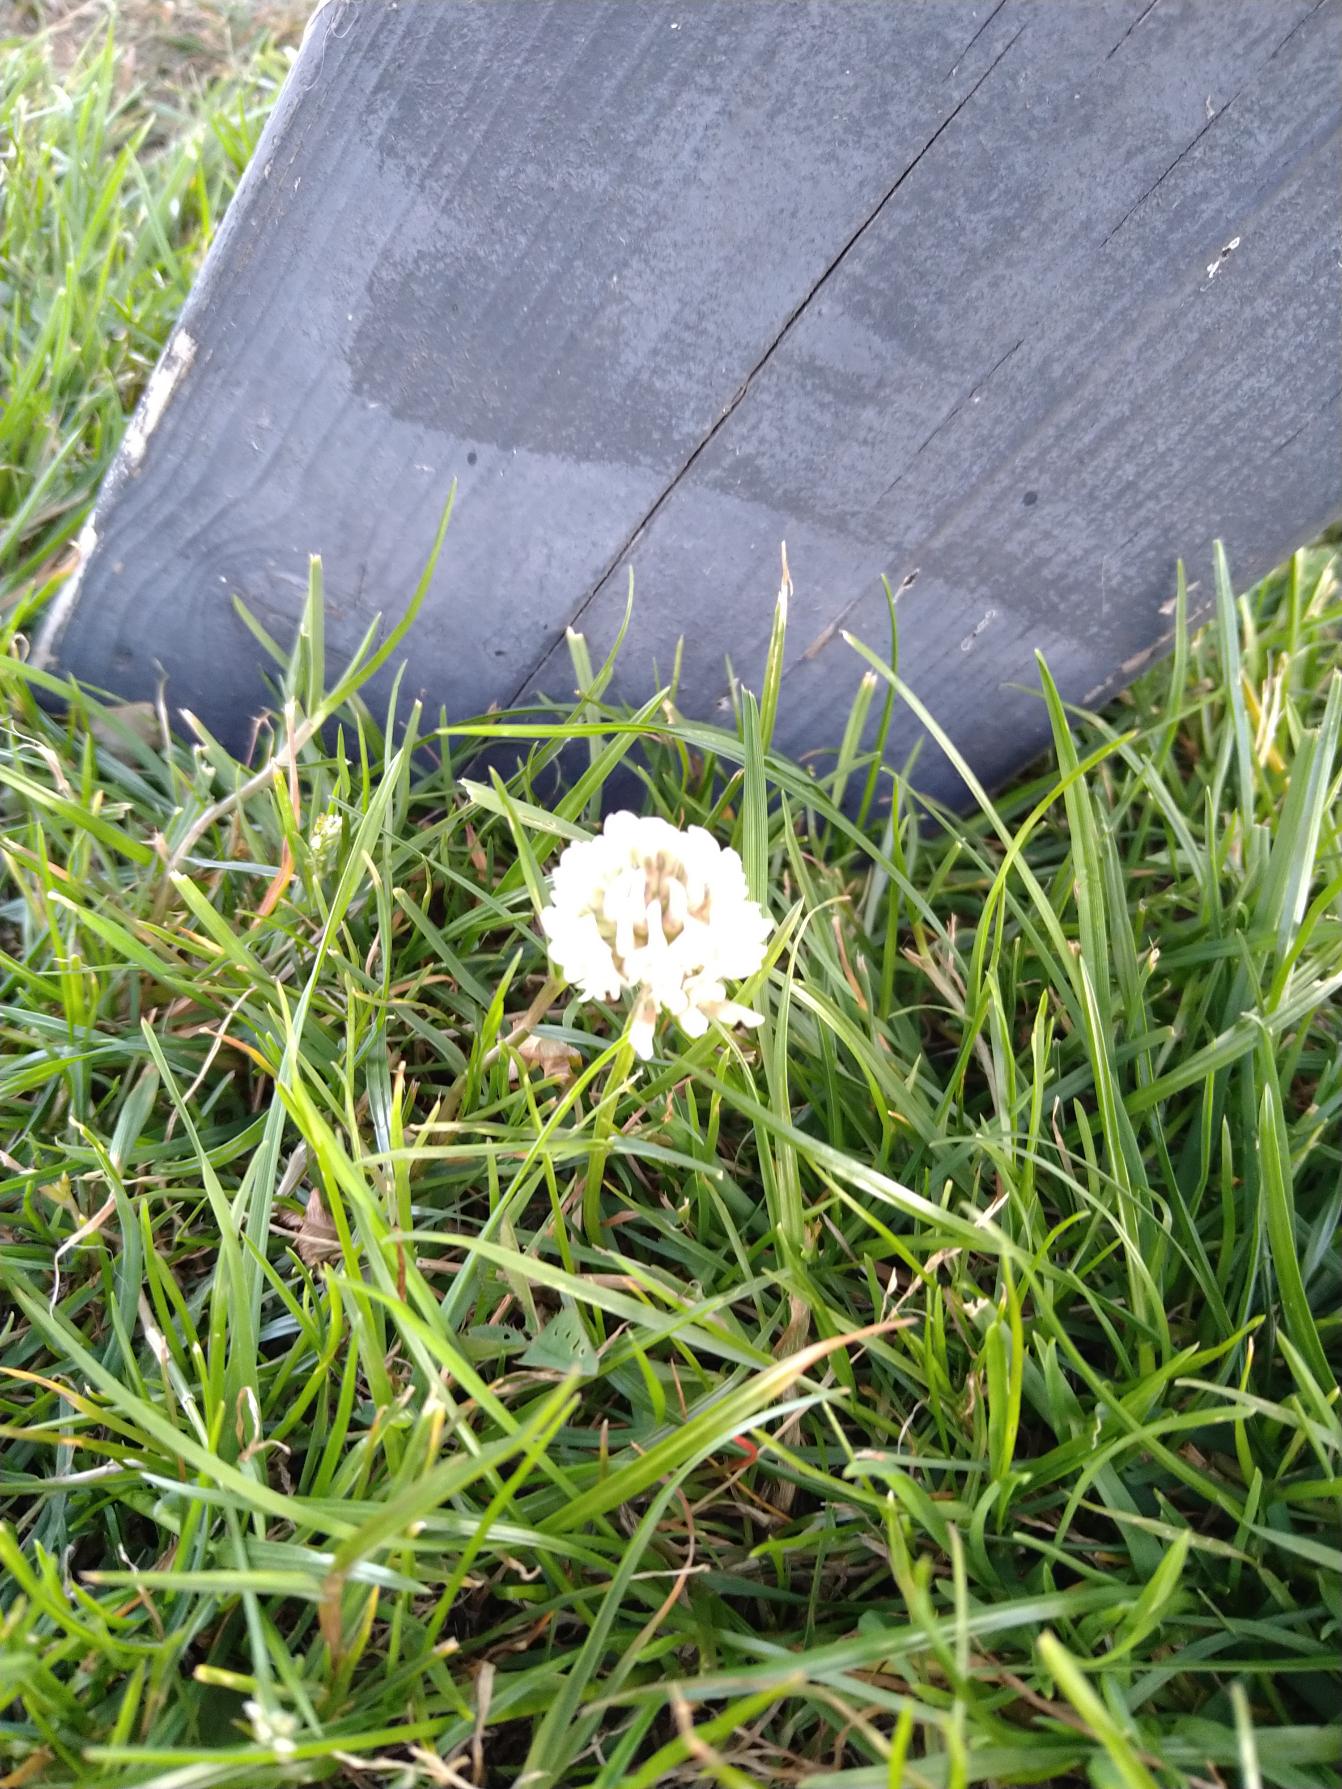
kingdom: Plantae
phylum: Tracheophyta
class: Magnoliopsida
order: Fabales
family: Fabaceae
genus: Trifolium
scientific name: Trifolium repens
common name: Hvid-kløver
